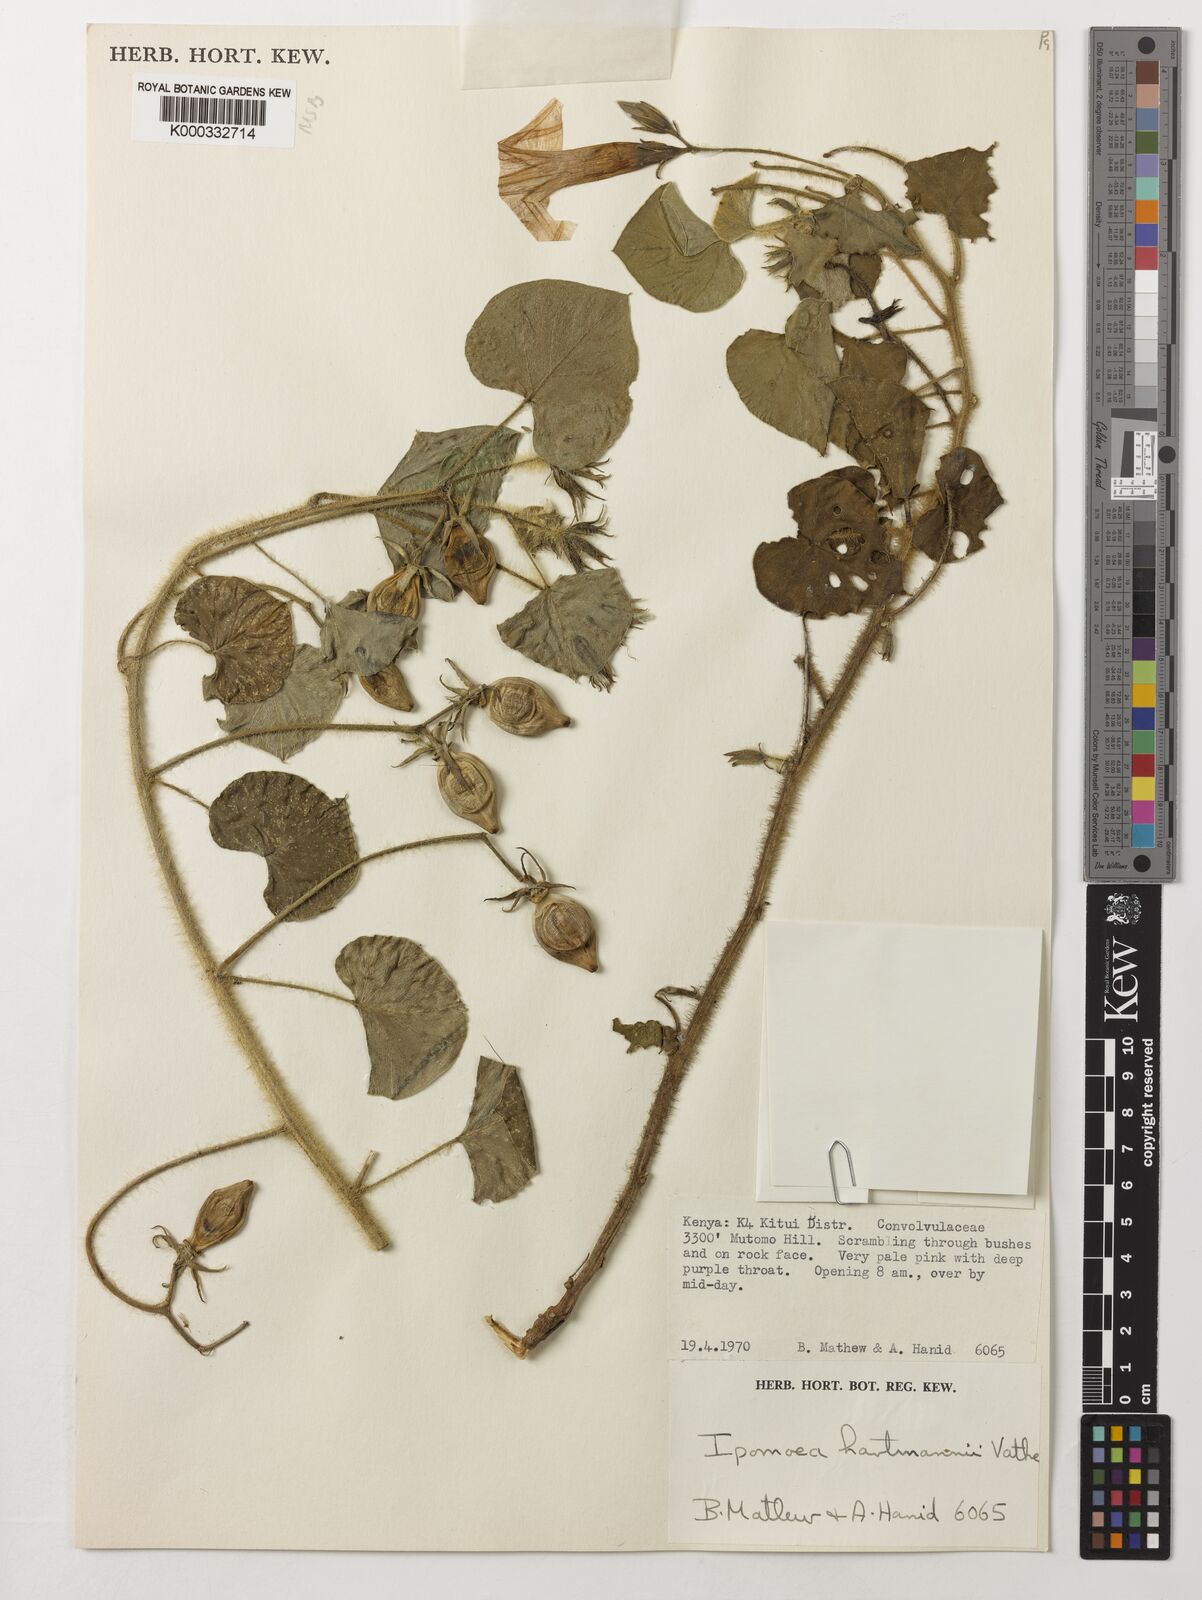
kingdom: Plantae
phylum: Tracheophyta
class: Magnoliopsida
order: Solanales
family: Convolvulaceae
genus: Ipomoea
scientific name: Ipomoea hartmannii
